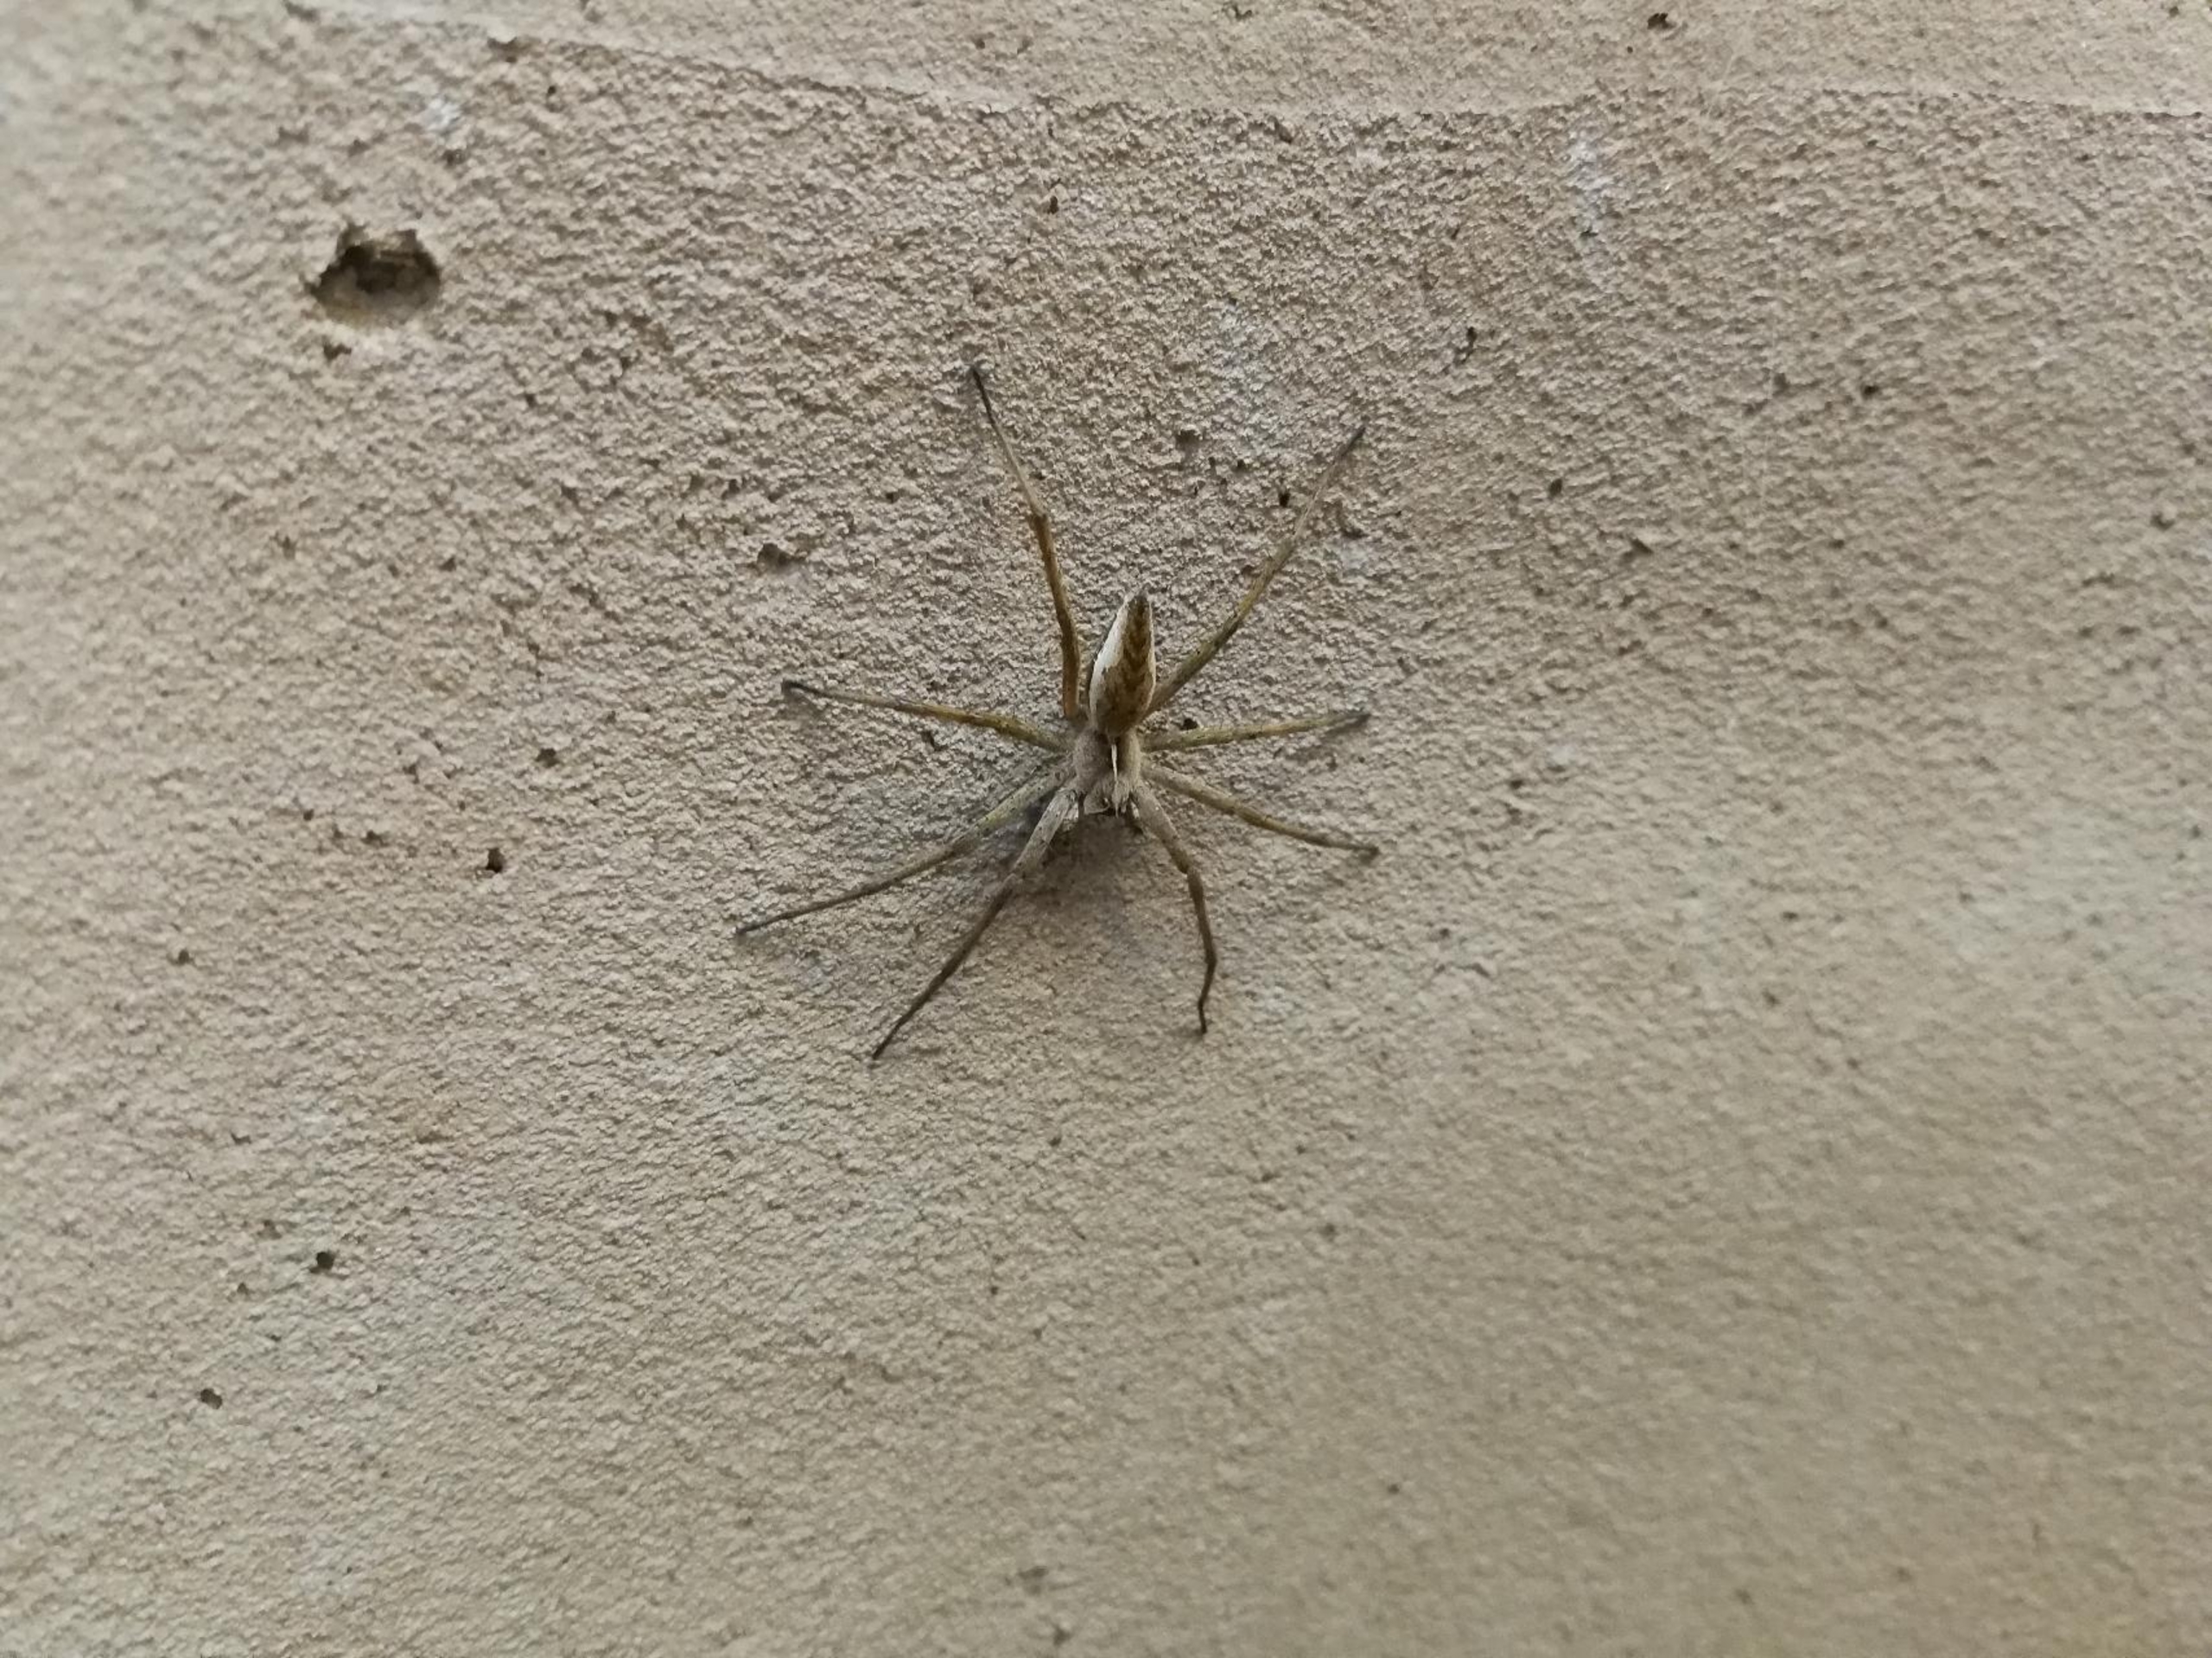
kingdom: Animalia
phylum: Arthropoda
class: Arachnida
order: Araneae
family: Pisauridae
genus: Pisaura
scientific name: Pisaura mirabilis
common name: Almindelig rovedderkop
